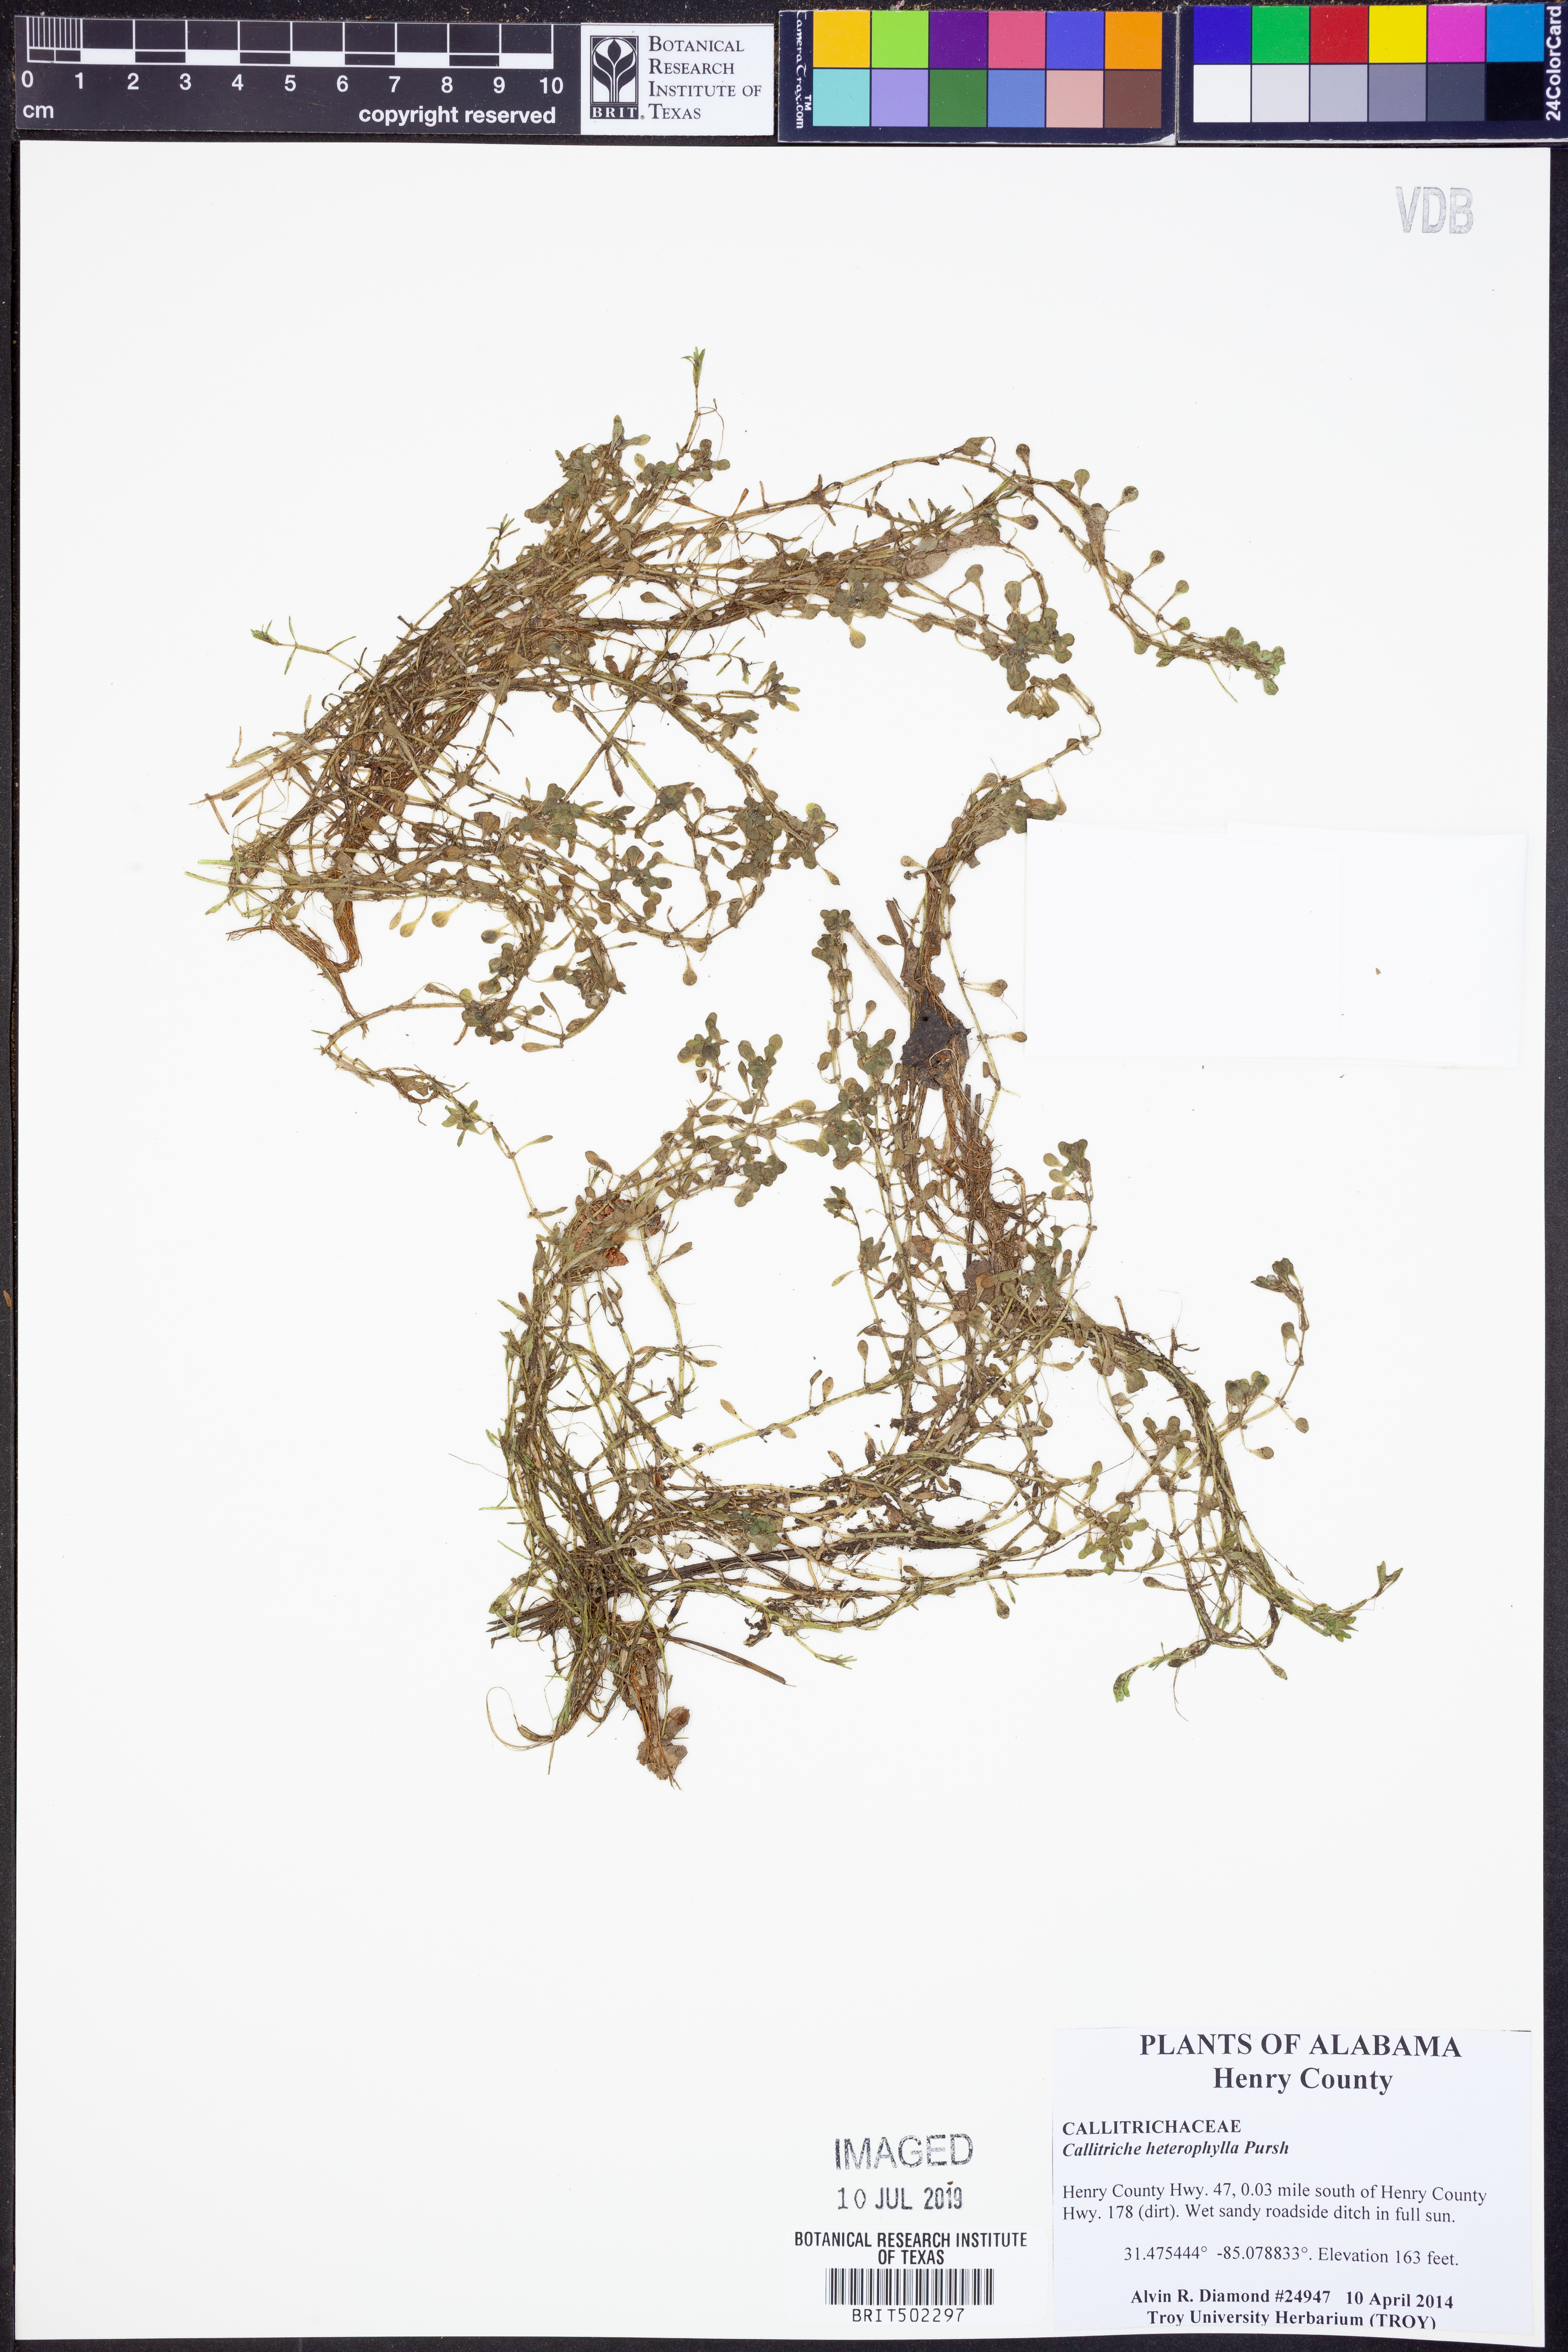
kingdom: Plantae
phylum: Tracheophyta
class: Magnoliopsida
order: Lamiales
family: Plantaginaceae
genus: Callitriche
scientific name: Callitriche heterophylla
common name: Two-headed water-starwort
